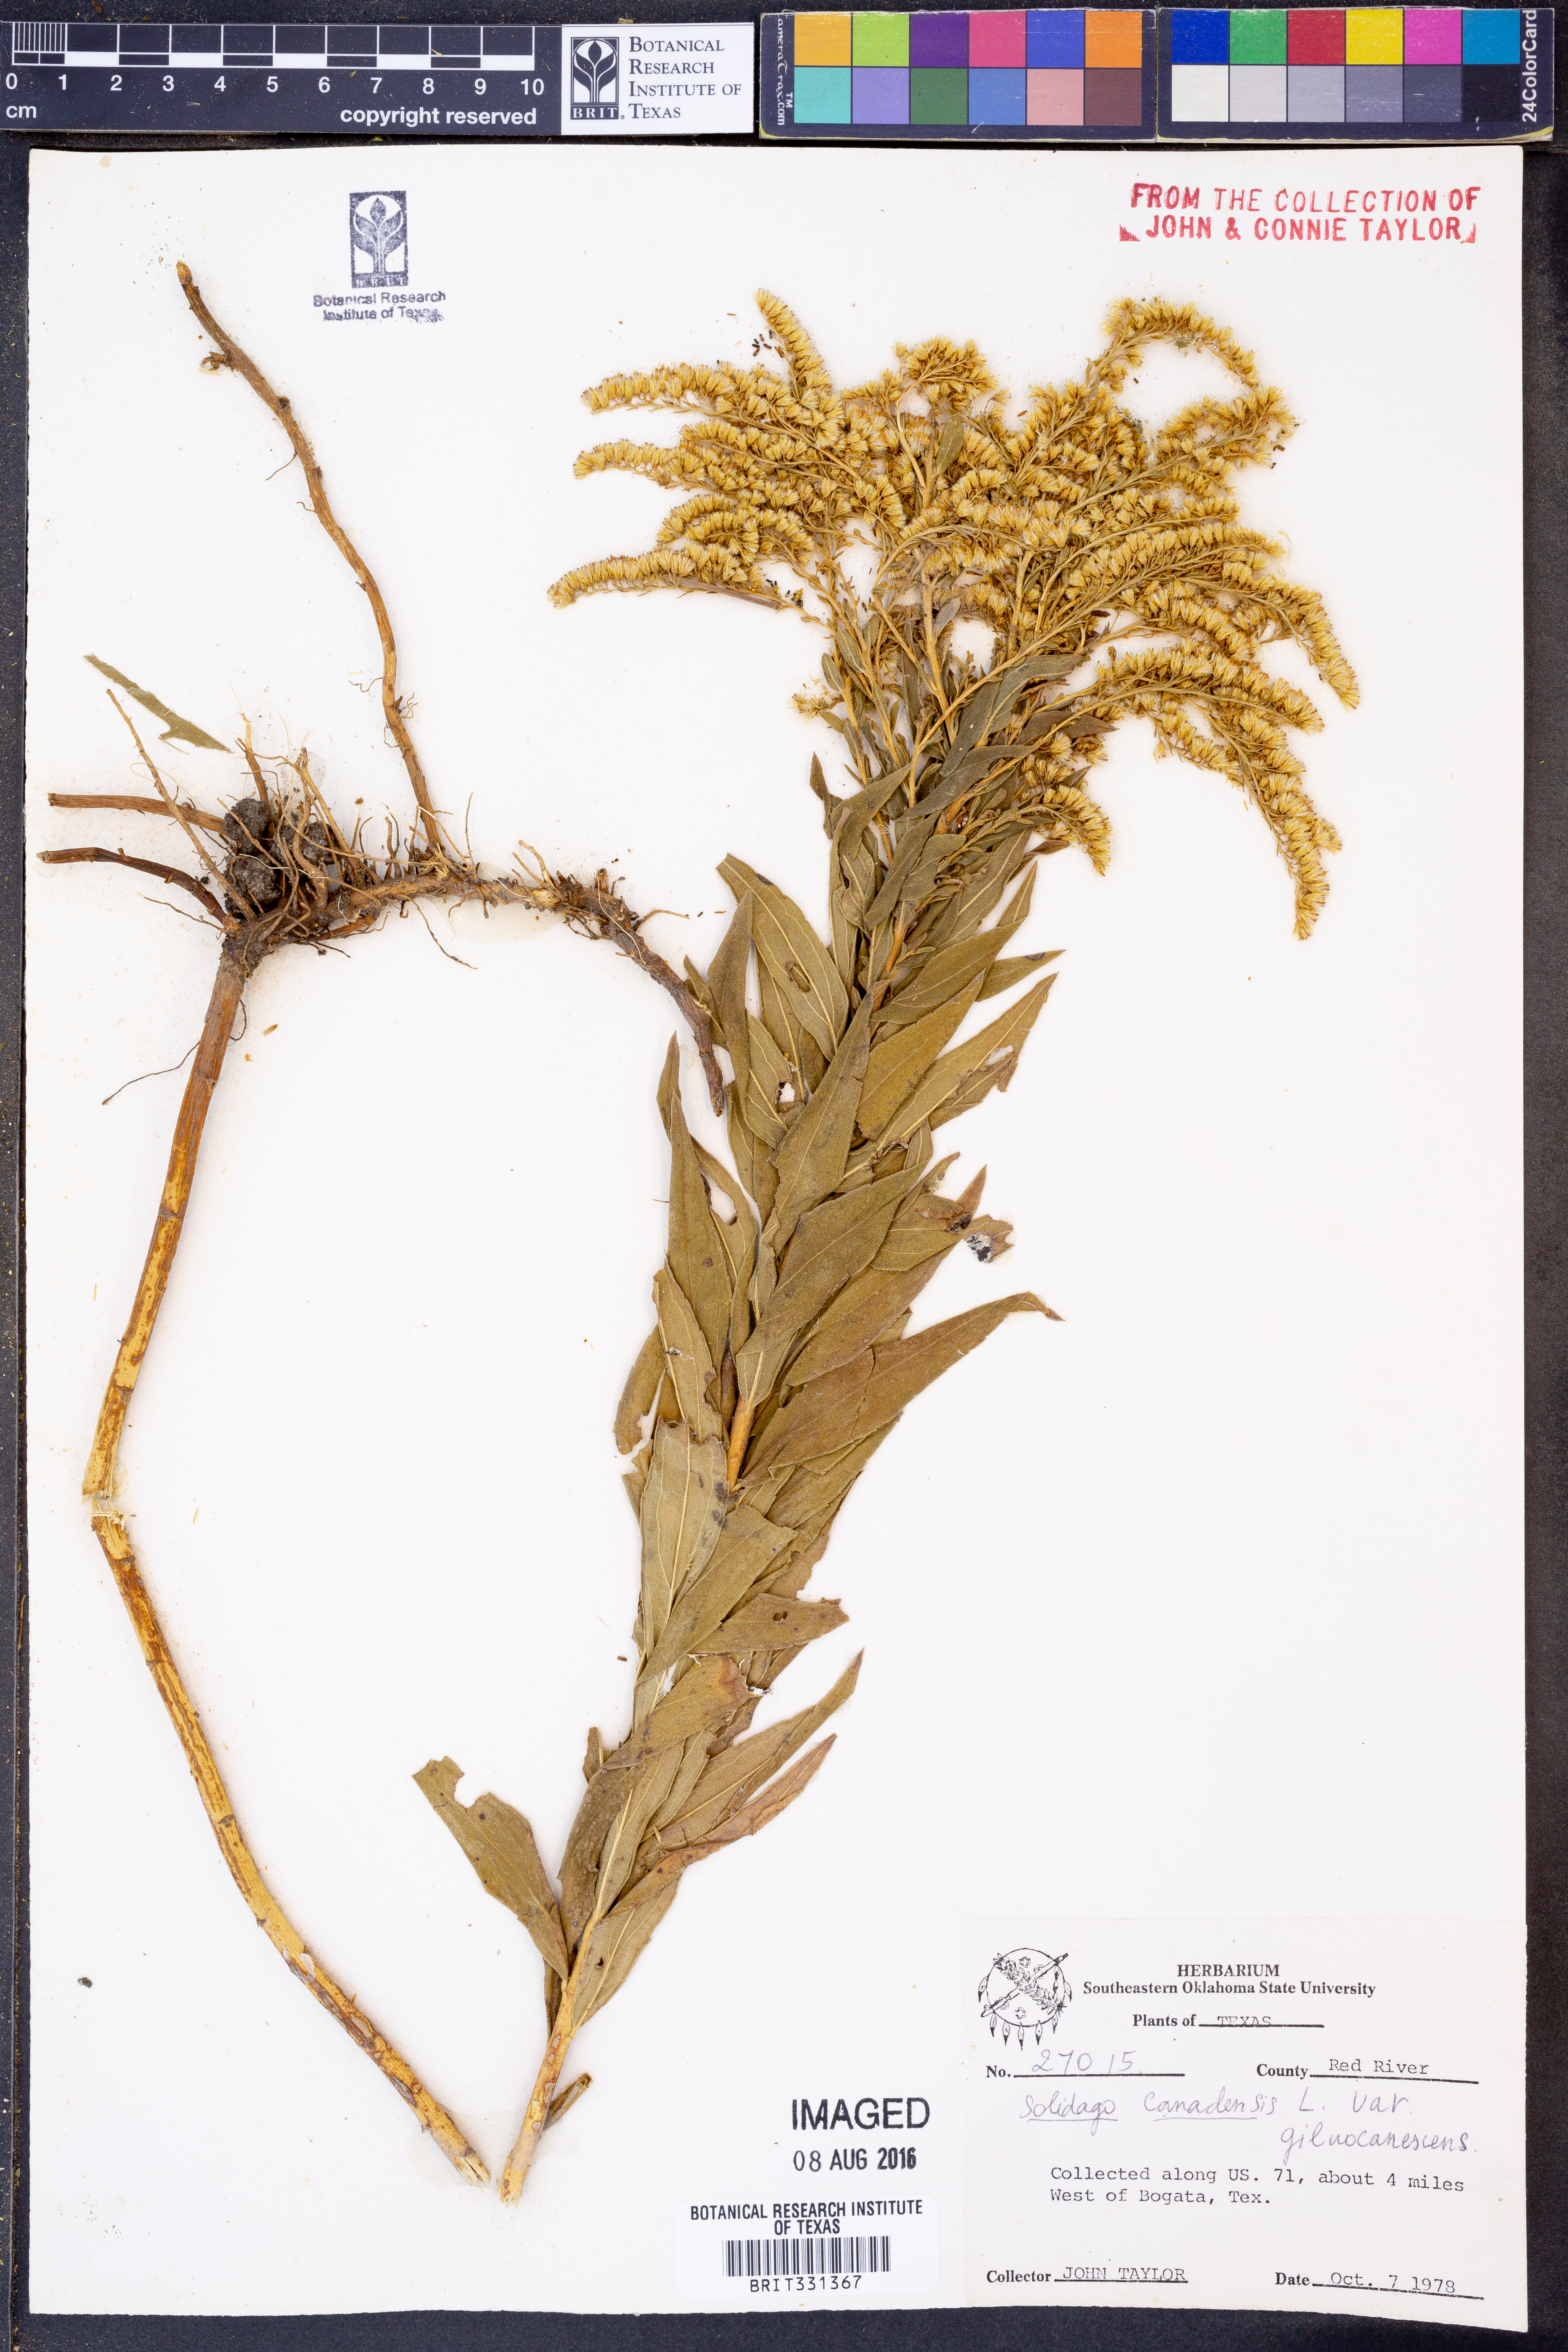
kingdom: Plantae
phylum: Tracheophyta
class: Magnoliopsida
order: Asterales
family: Asteraceae
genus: Solidago
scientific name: Solidago altissima
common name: Late goldenrod
